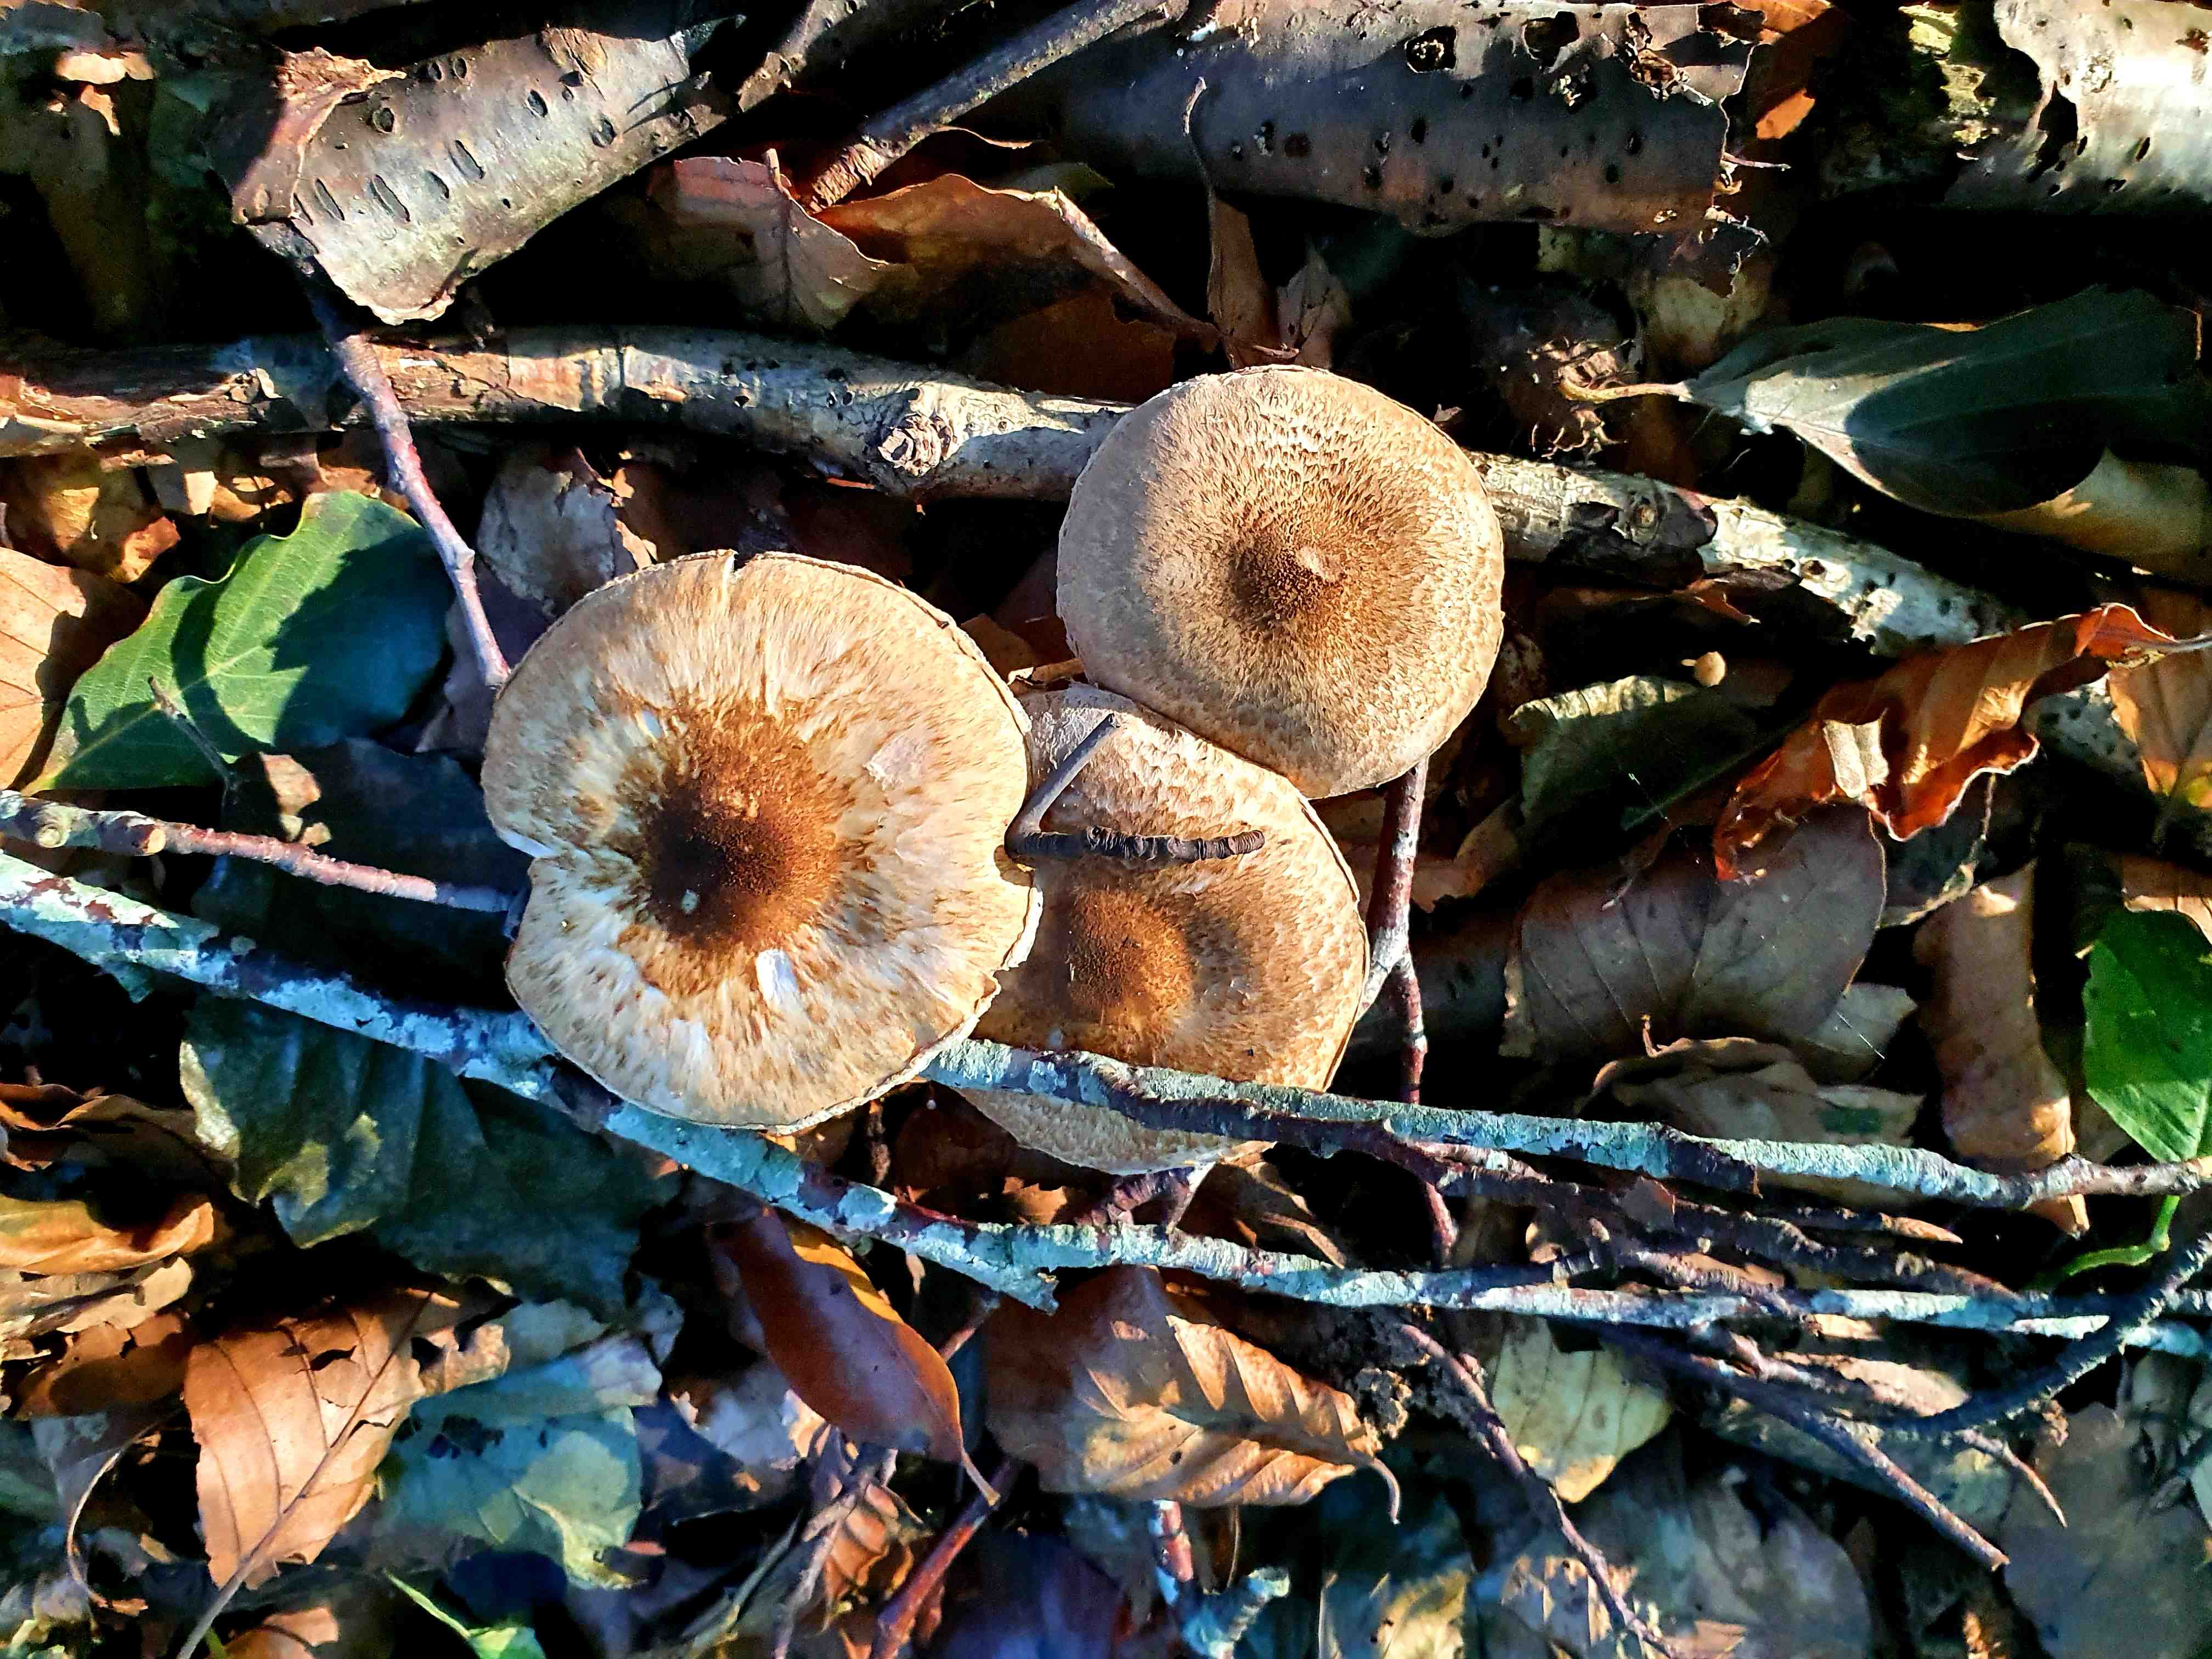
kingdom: Fungi
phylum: Basidiomycota
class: Agaricomycetes
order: Agaricales
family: Agaricaceae
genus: Lepiota
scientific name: Lepiota
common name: parasolhat
